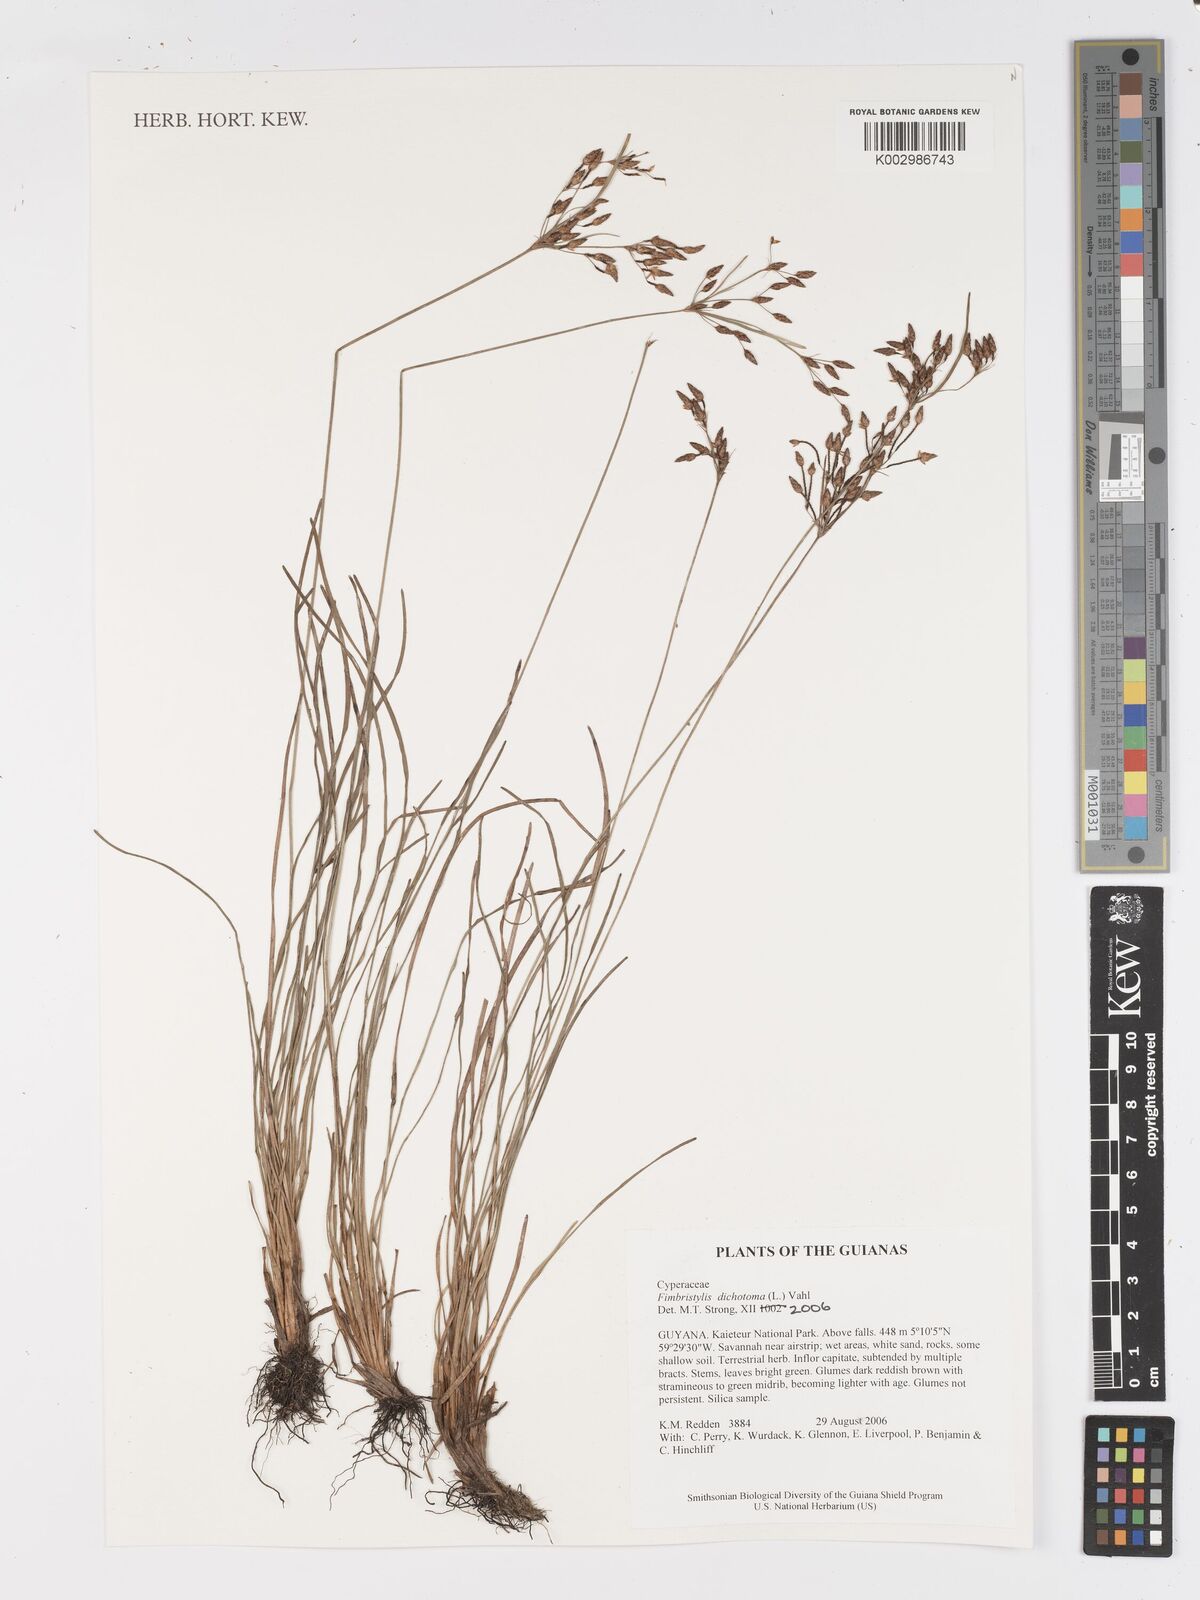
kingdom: Plantae
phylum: Tracheophyta
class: Liliopsida
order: Poales
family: Cyperaceae
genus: Fimbristylis
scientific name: Fimbristylis dichotoma
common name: Forked fimbry
